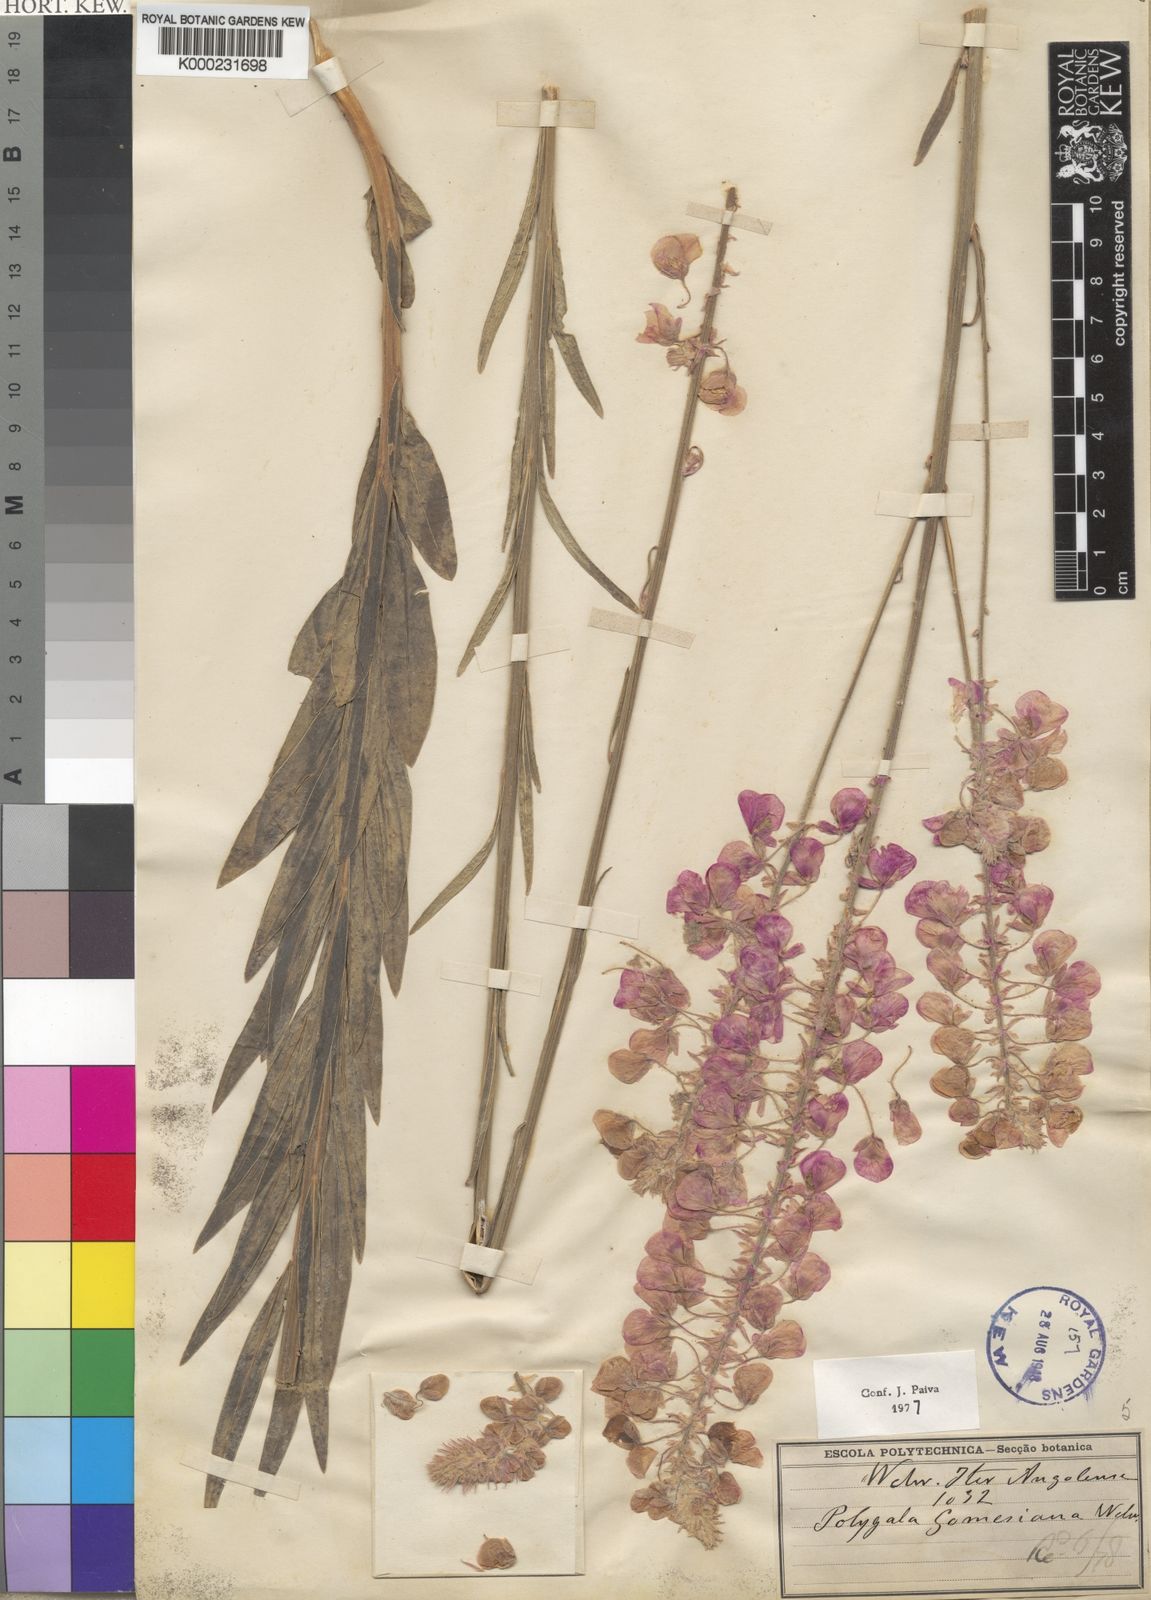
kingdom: Plantae
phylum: Tracheophyta
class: Magnoliopsida
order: Fabales
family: Polygalaceae
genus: Polygala
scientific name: Polygala gomesiana
